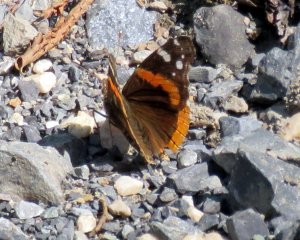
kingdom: Animalia
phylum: Arthropoda
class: Insecta
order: Lepidoptera
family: Nymphalidae
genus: Vanessa
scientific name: Vanessa atalanta
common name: Red Admiral
